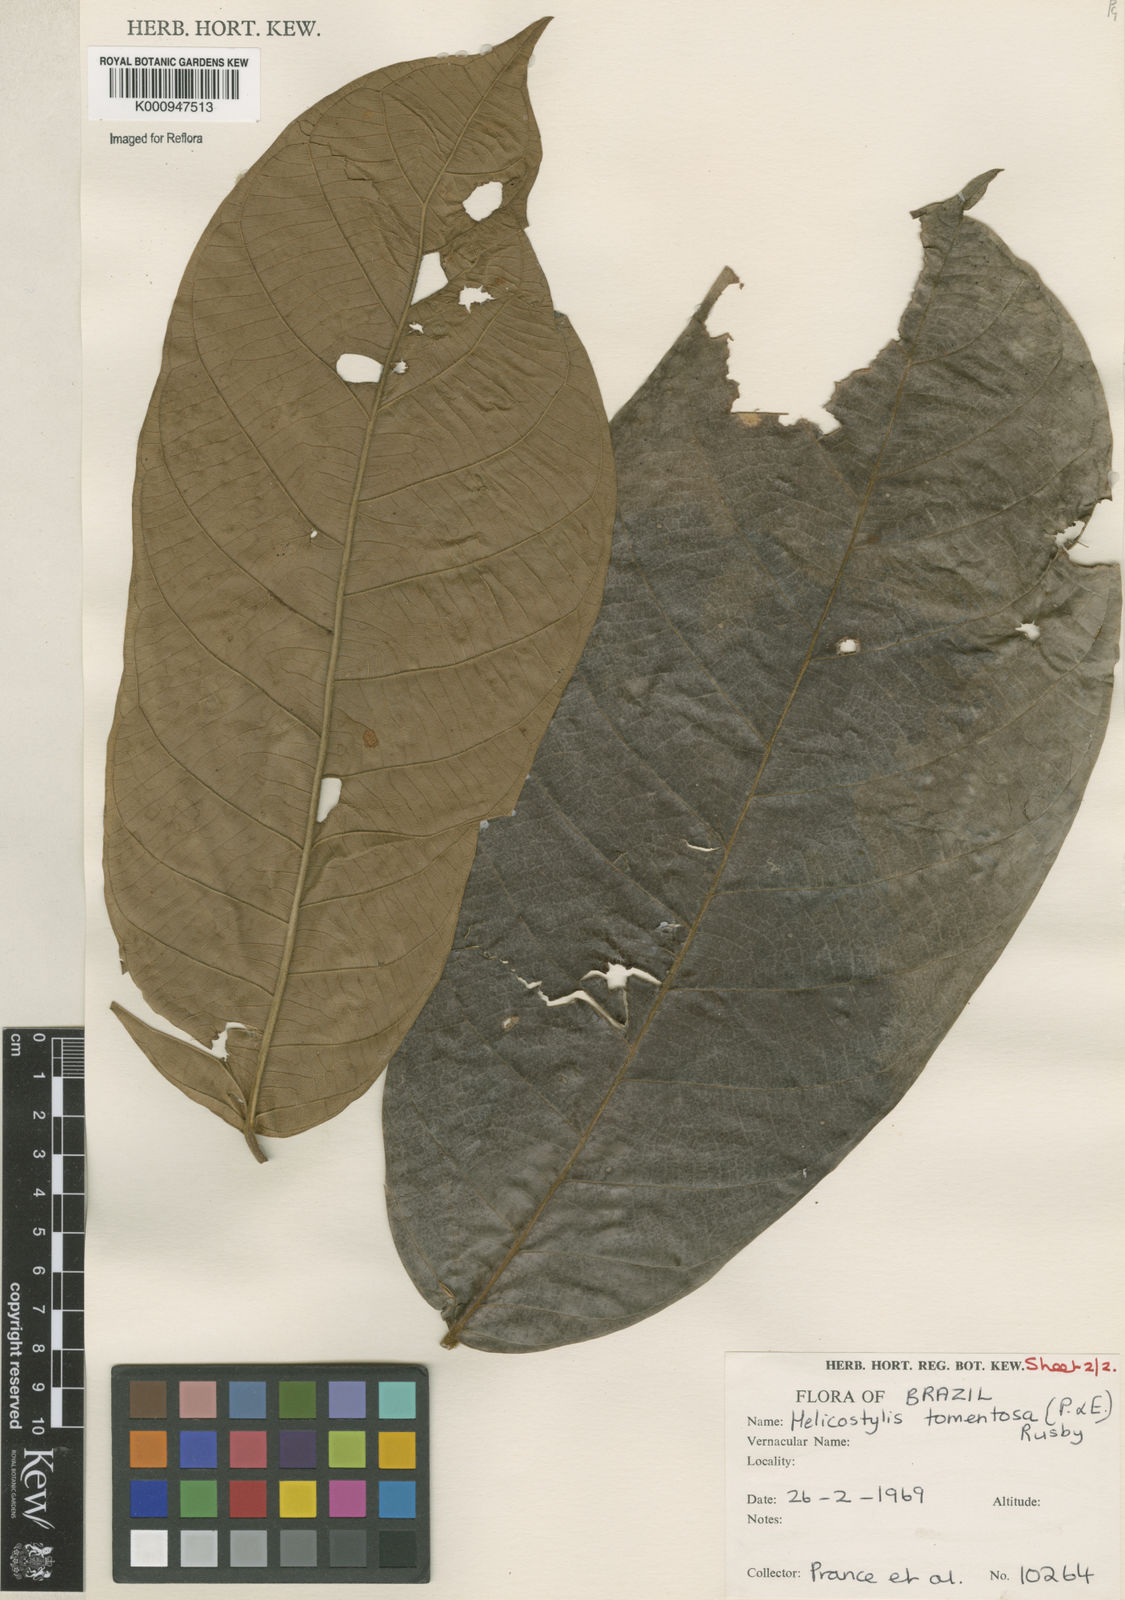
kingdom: Plantae
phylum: Tracheophyta
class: Magnoliopsida
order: Rosales
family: Moraceae
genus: Helicostylis
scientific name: Helicostylis
